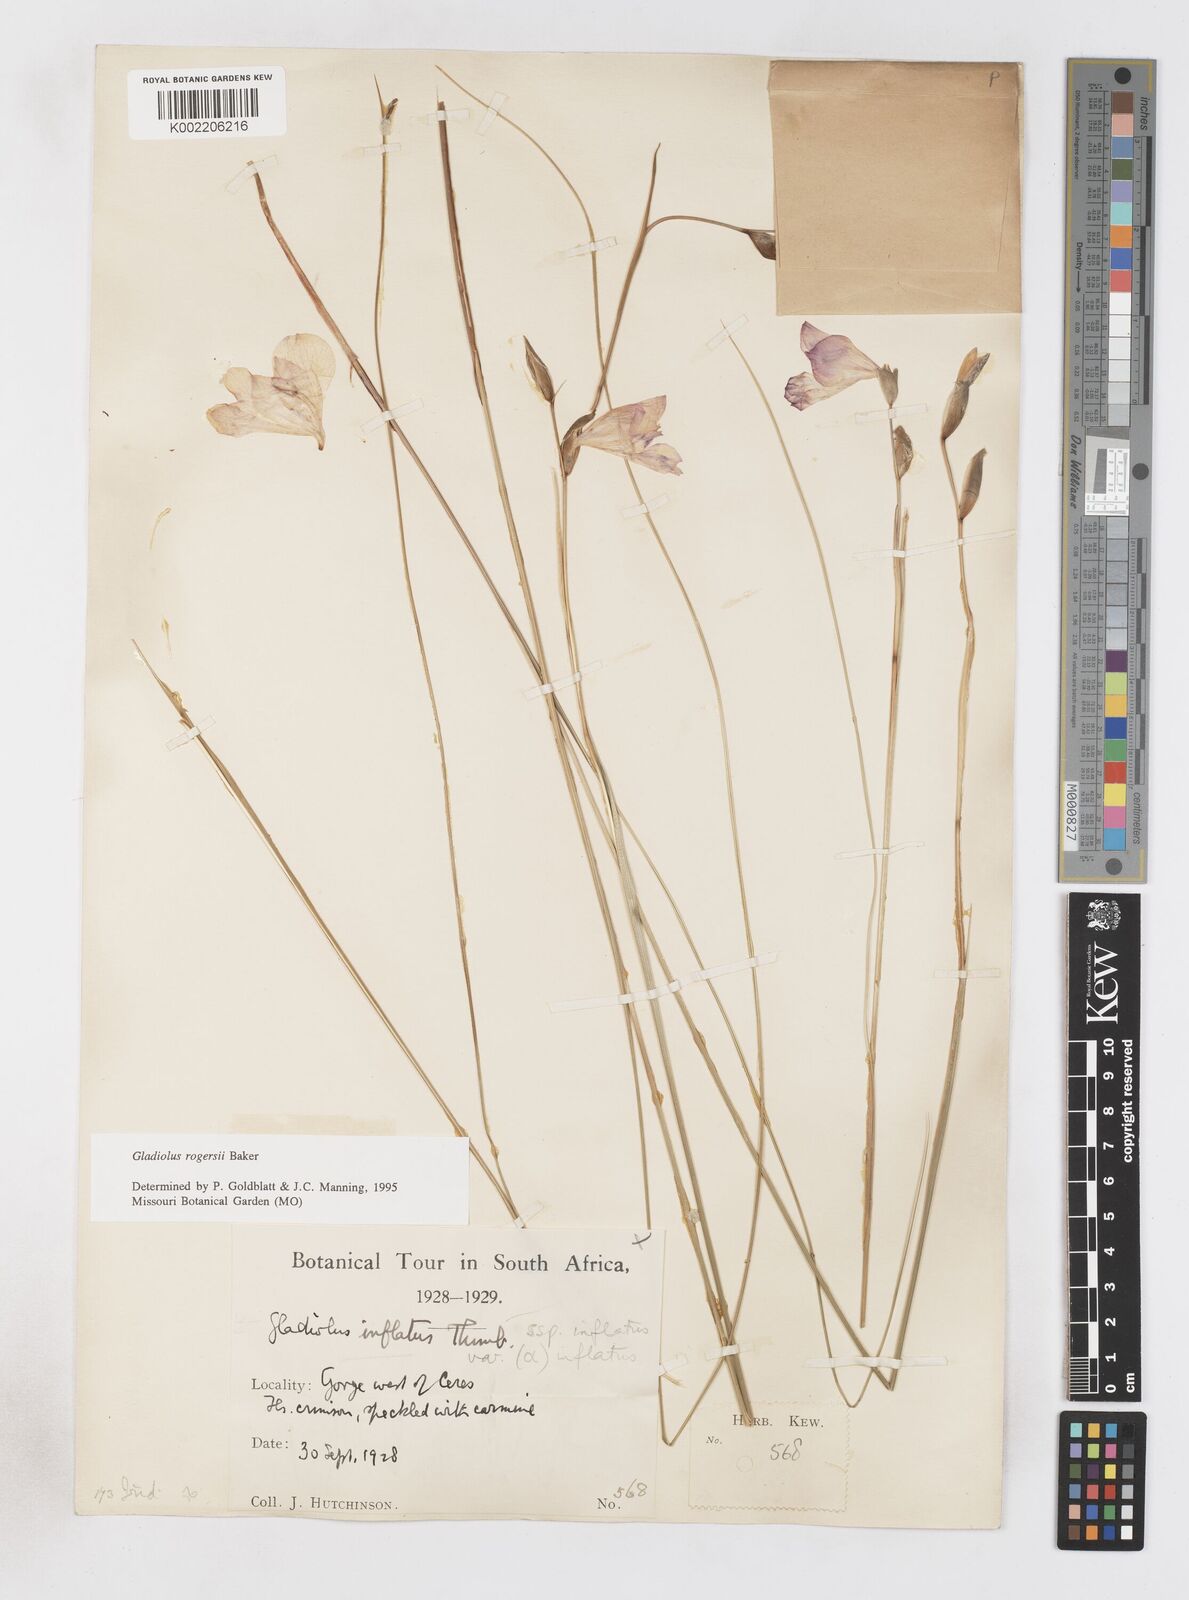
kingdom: Plantae
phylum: Tracheophyta
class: Liliopsida
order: Asparagales
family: Iridaceae
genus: Gladiolus
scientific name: Gladiolus inflatus
